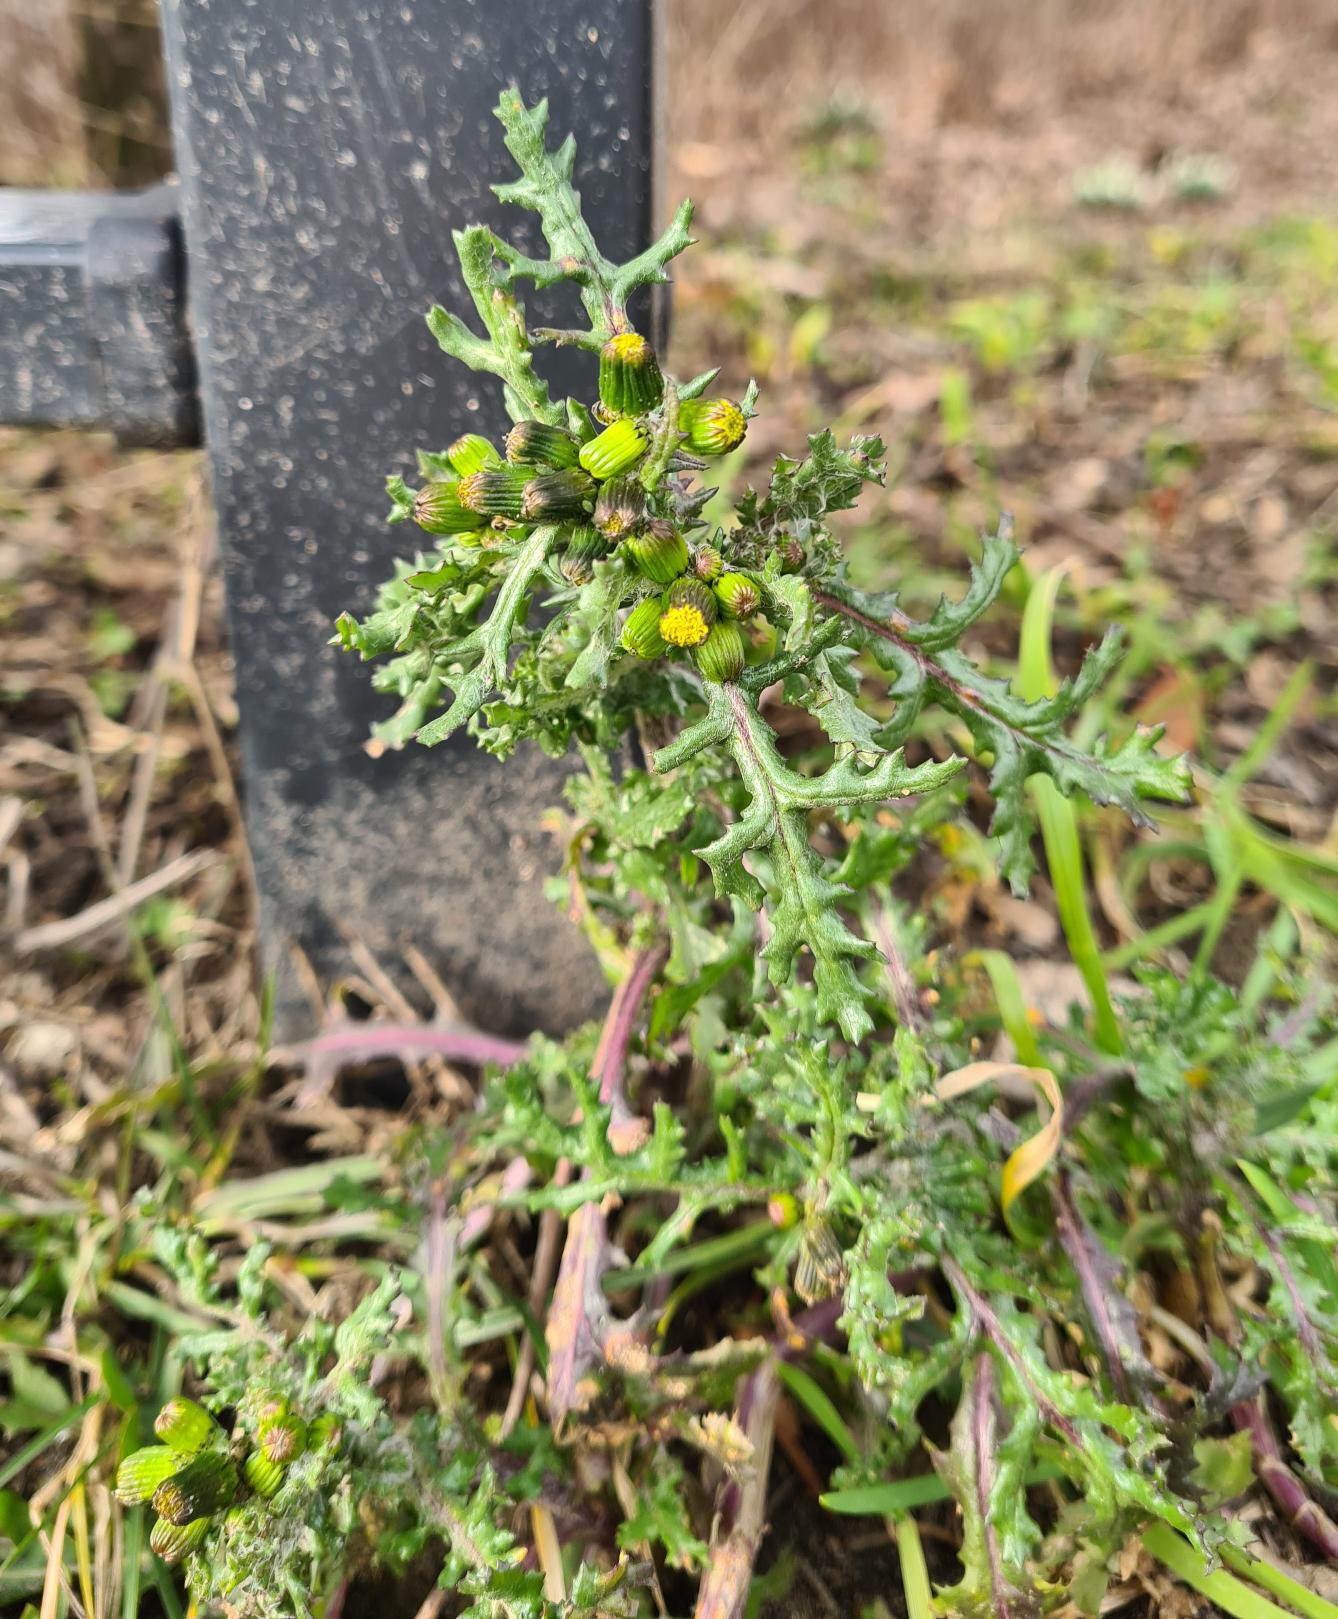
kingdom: Plantae
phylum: Tracheophyta
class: Magnoliopsida
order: Asterales
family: Asteraceae
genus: Senecio
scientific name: Senecio vulgaris
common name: Almindelig brandbæger
